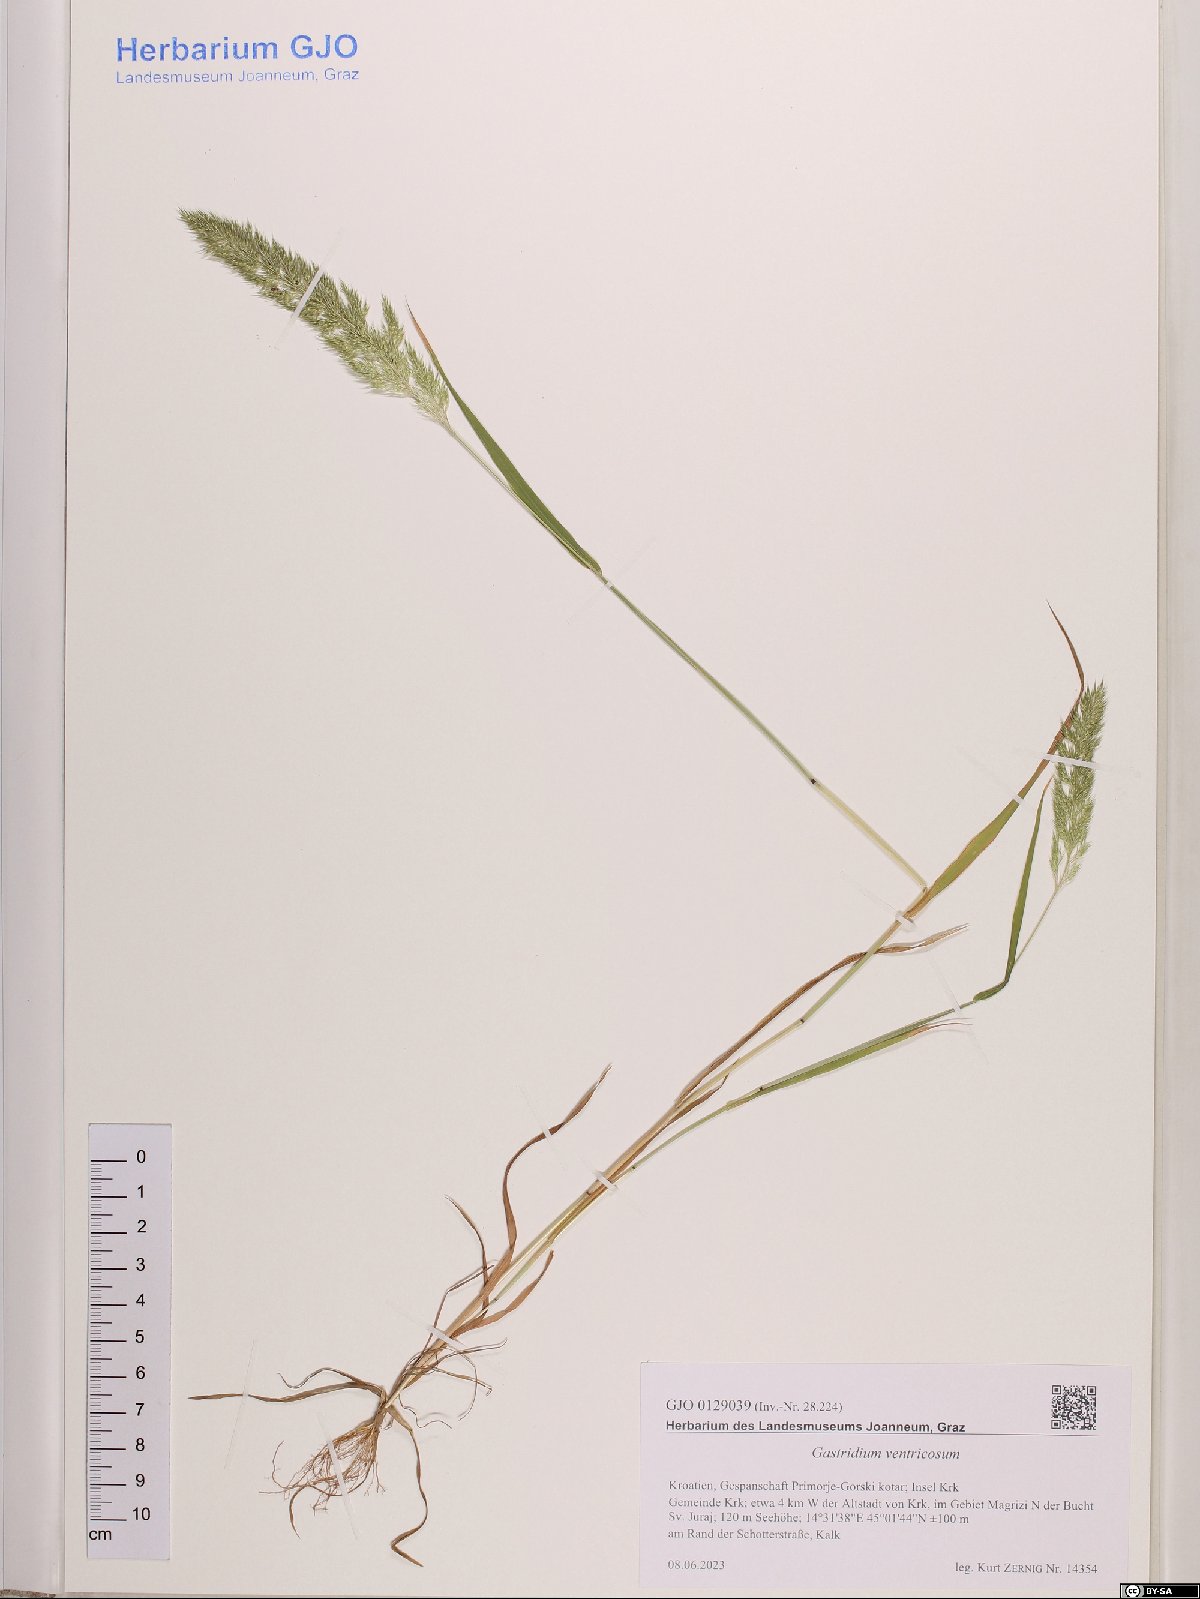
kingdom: Plantae
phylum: Tracheophyta
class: Liliopsida
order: Poales
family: Poaceae
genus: Gastridium
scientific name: Gastridium ventricosum
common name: Nit-grass
